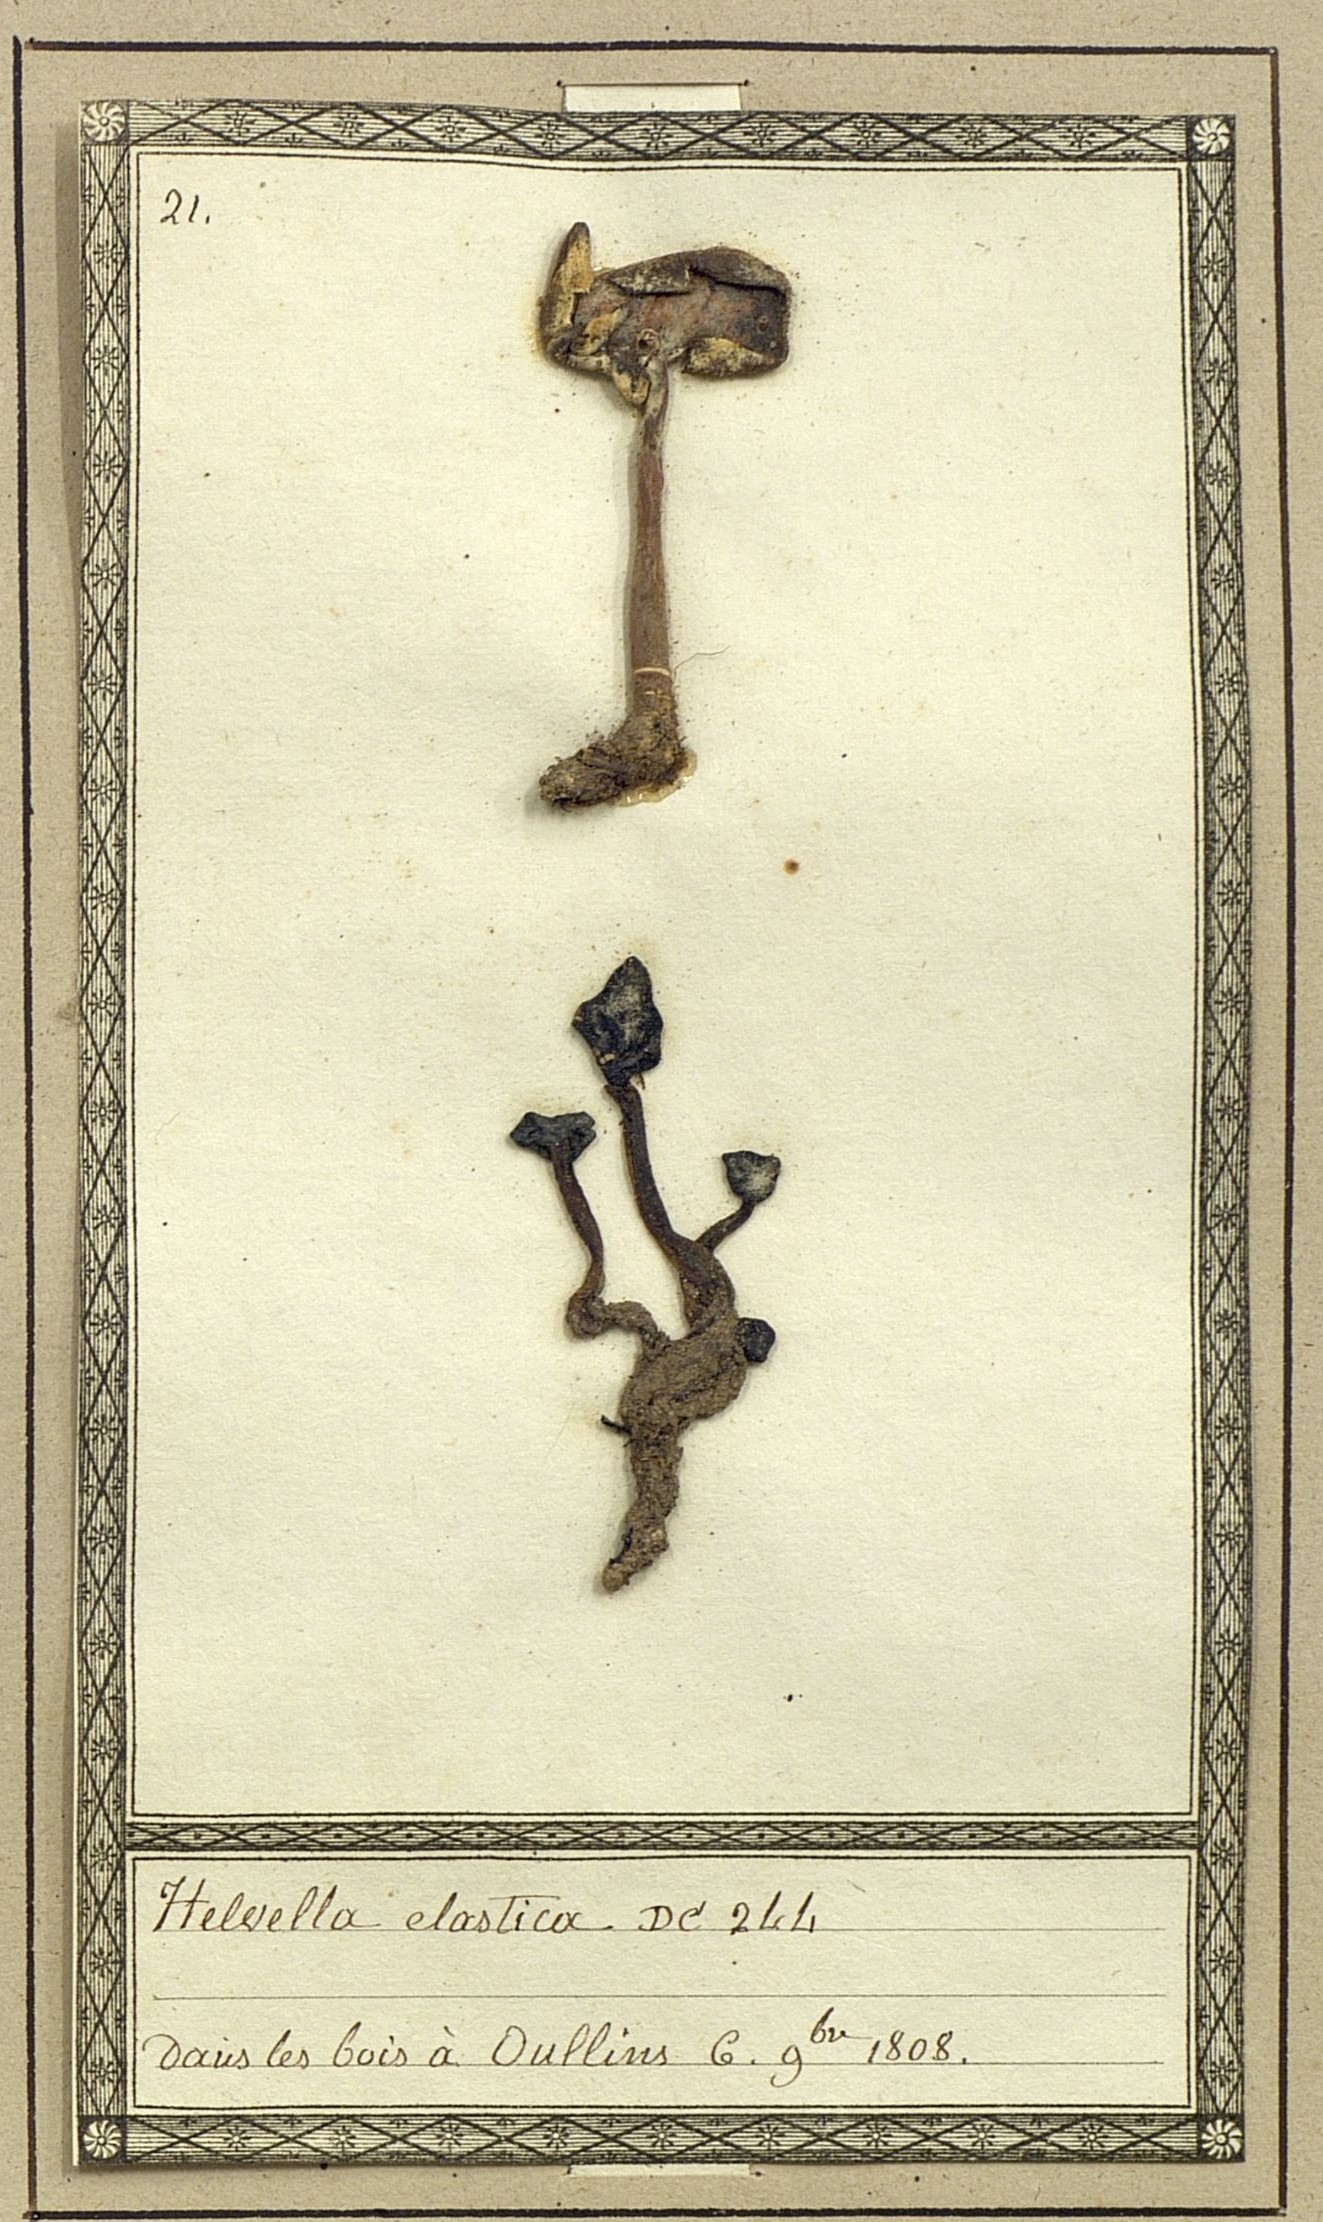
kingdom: Fungi
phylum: Ascomycota
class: Pezizomycetes
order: Pezizales
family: Helvellaceae
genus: Helvella
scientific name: Helvella elastica
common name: Elastic saddle
